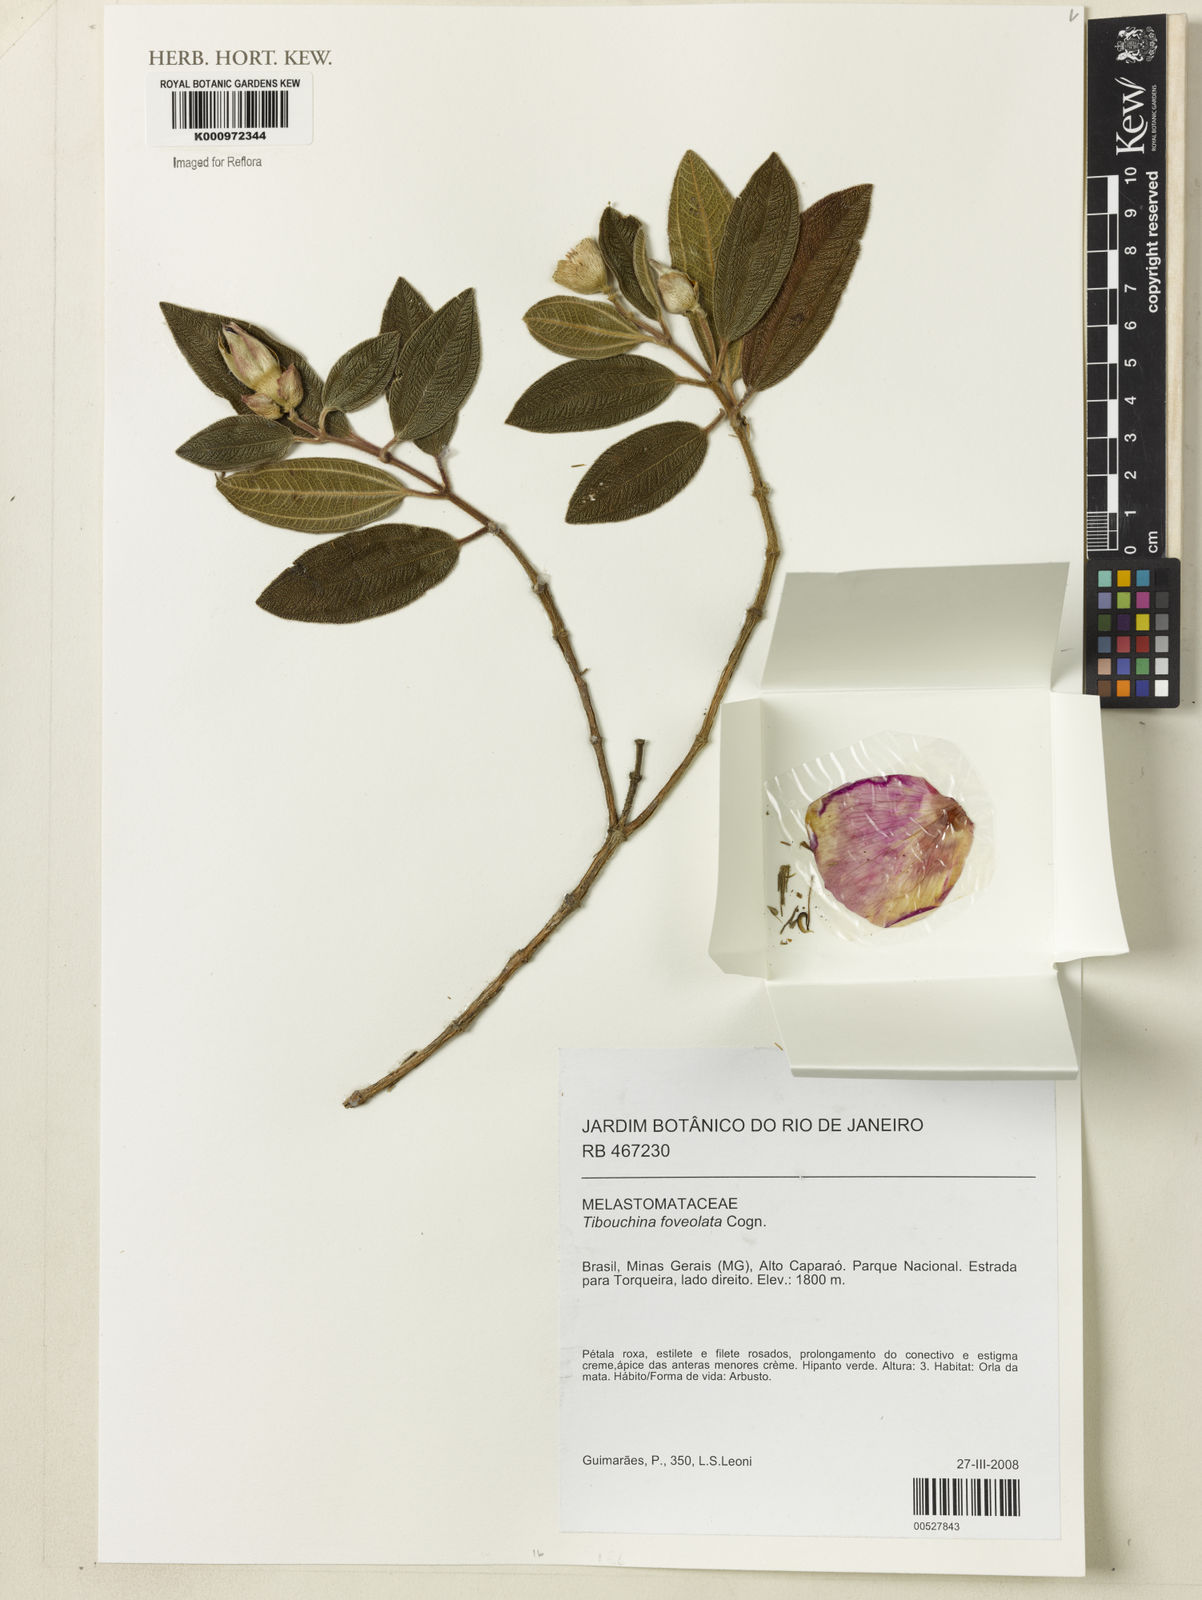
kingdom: Plantae
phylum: Tracheophyta
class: Magnoliopsida
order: Myrtales
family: Melastomataceae
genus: Pleroma
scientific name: Pleroma foveolatum
